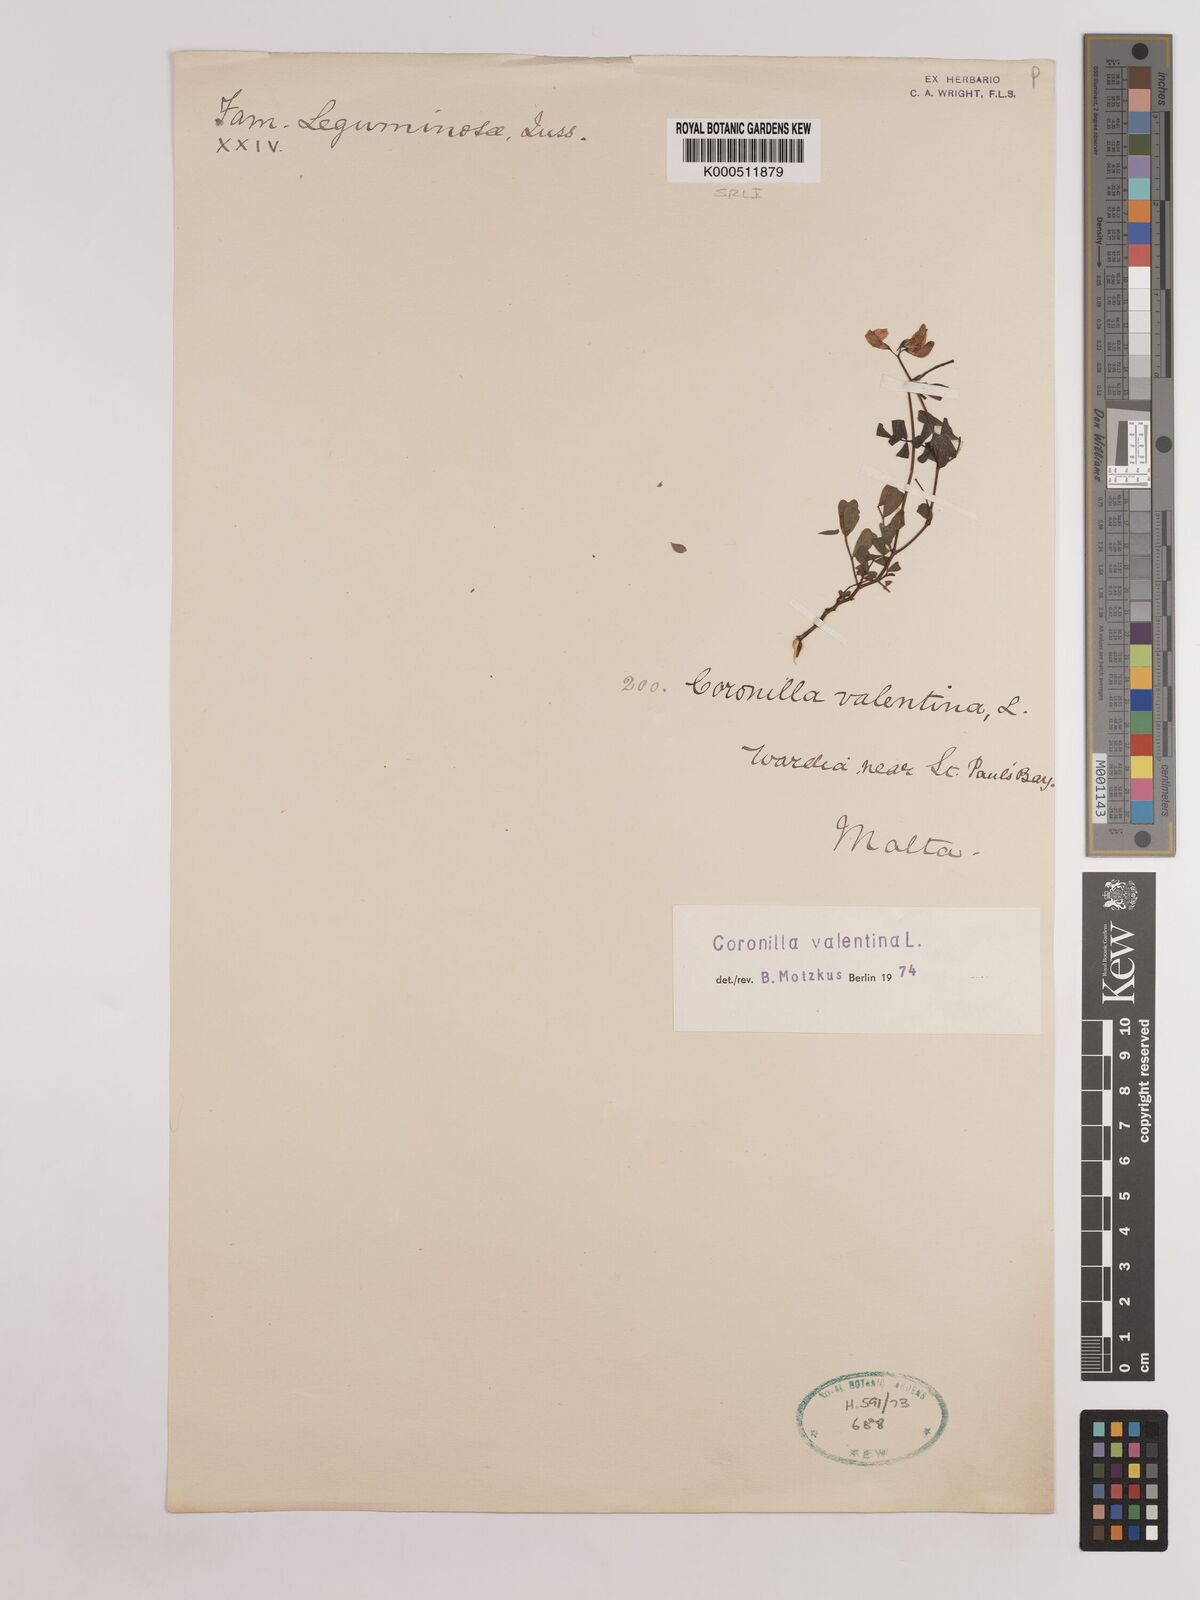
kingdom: Plantae
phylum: Tracheophyta
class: Magnoliopsida
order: Fabales
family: Fabaceae
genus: Coronilla
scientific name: Coronilla valentina
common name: Shrubby scorpion-vetch
